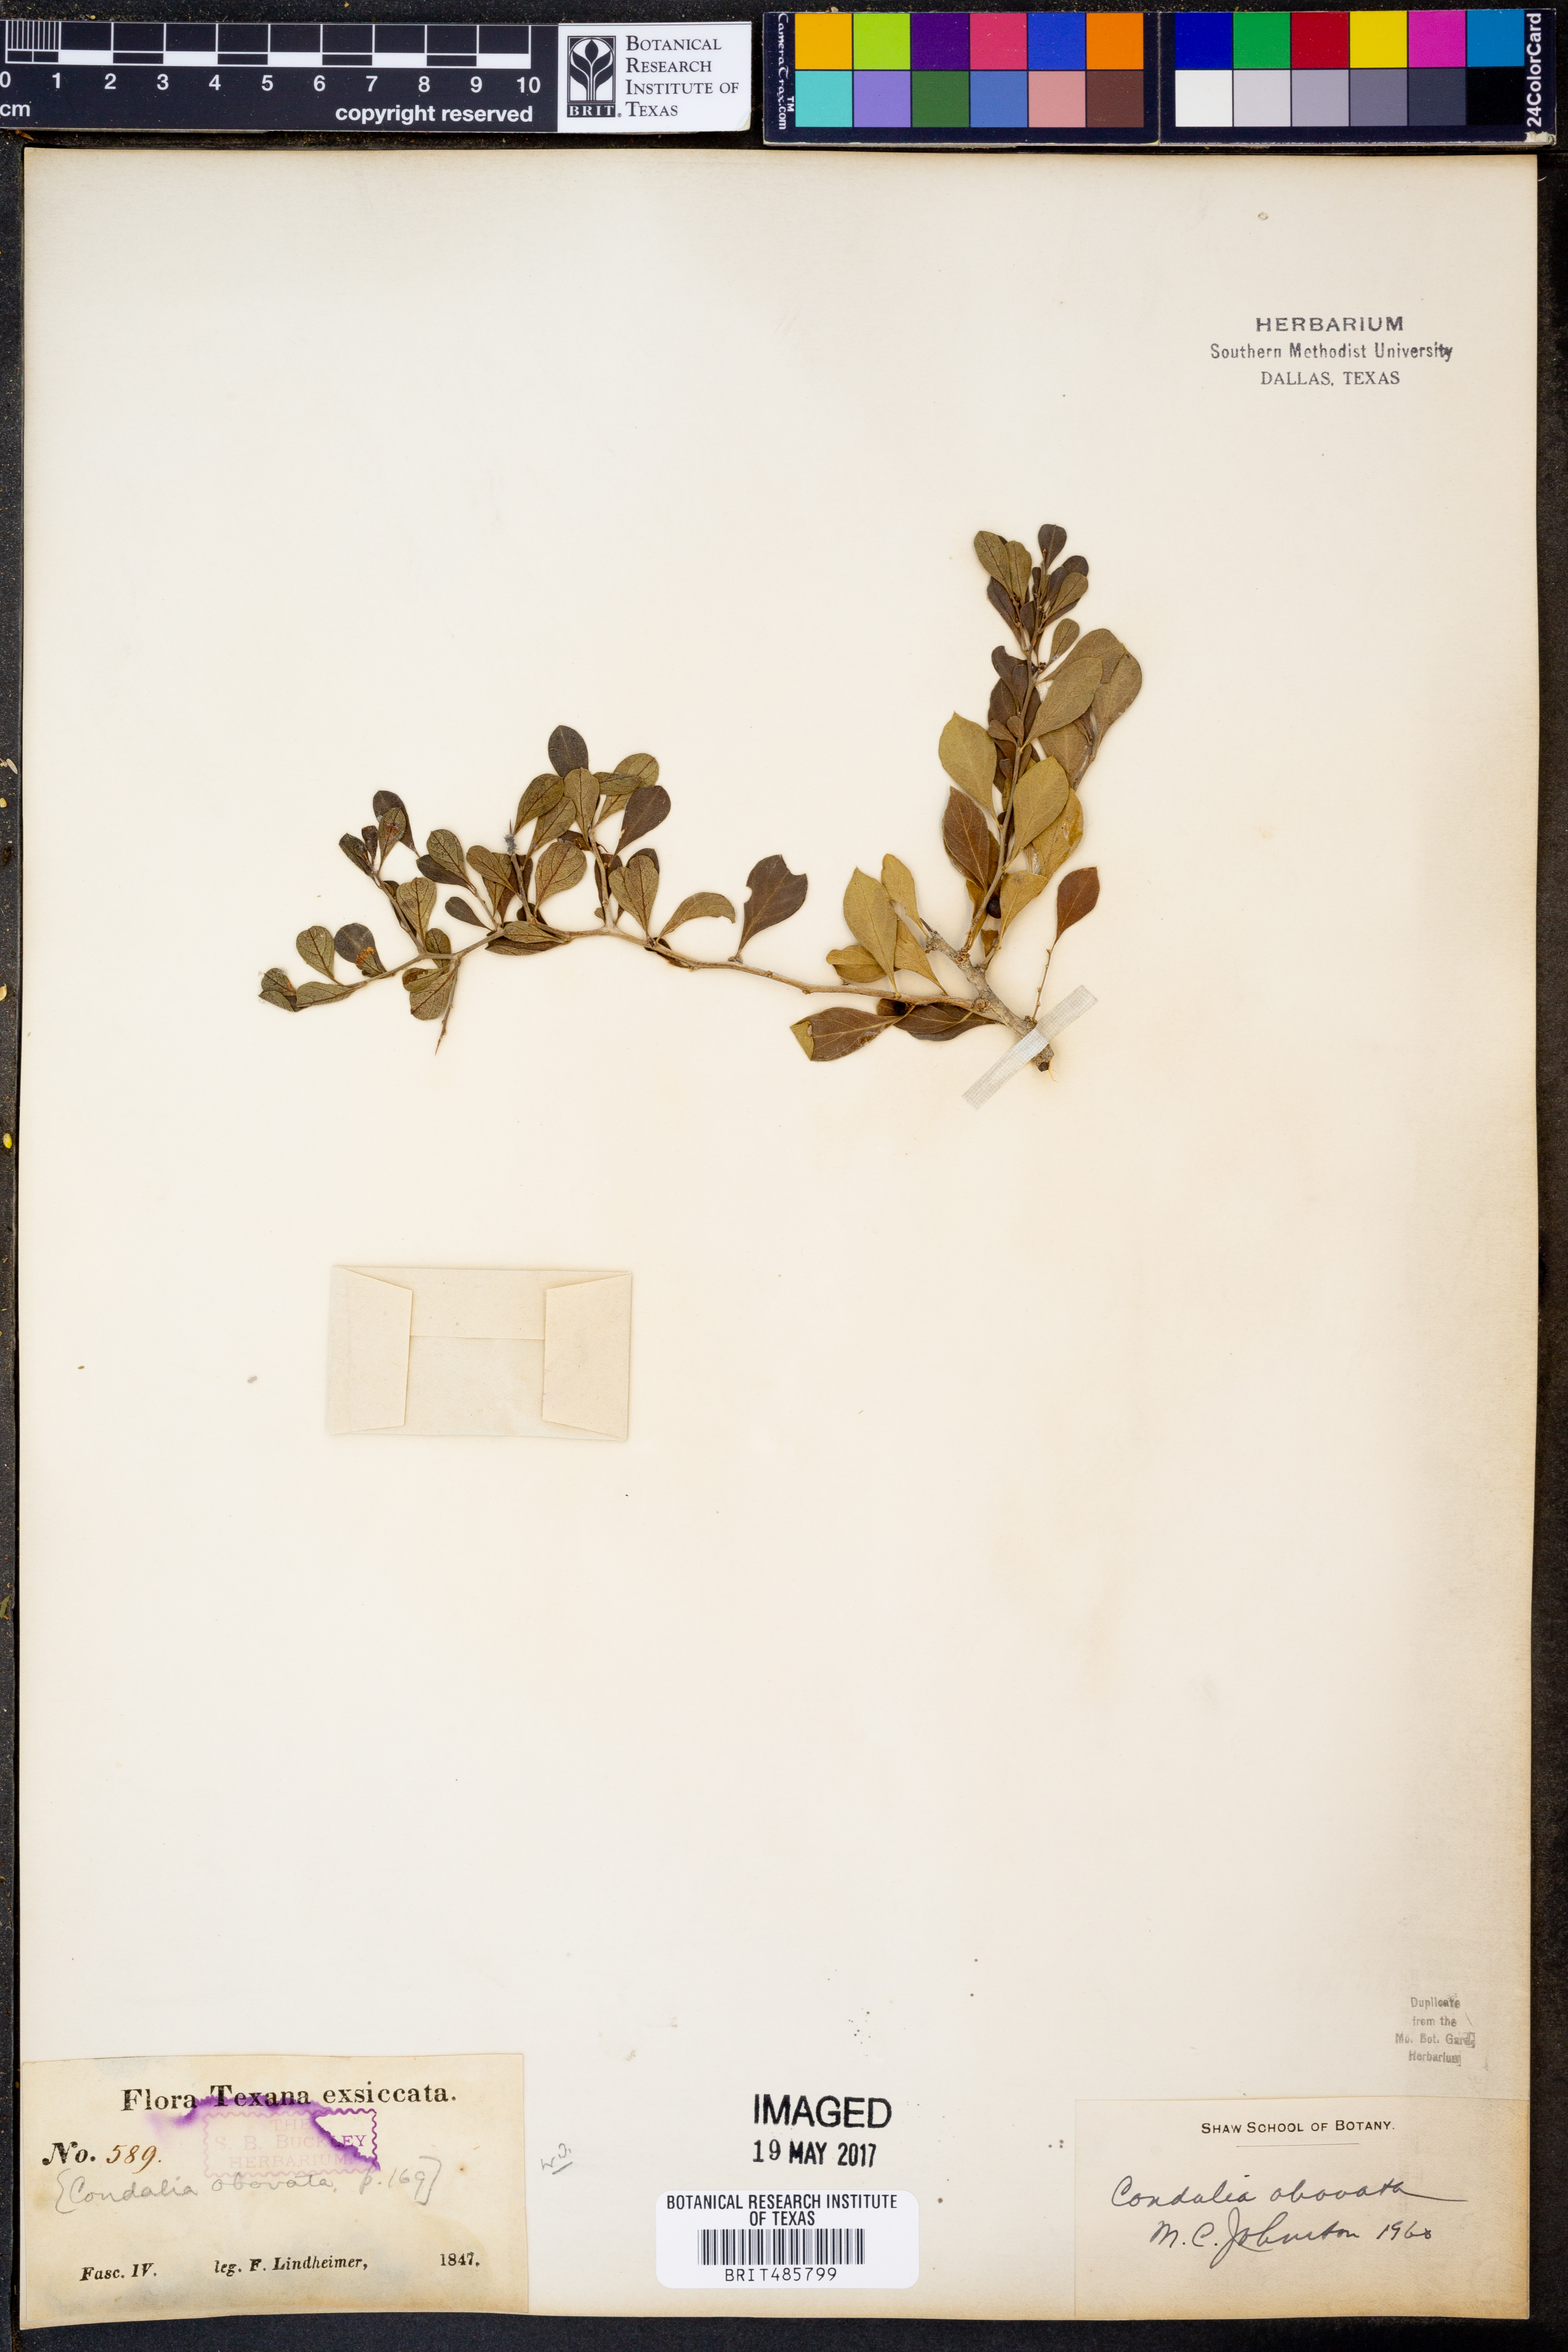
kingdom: Plantae
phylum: Tracheophyta
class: Magnoliopsida
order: Rosales
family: Rhamnaceae
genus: Condalia
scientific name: Condalia hookeri
